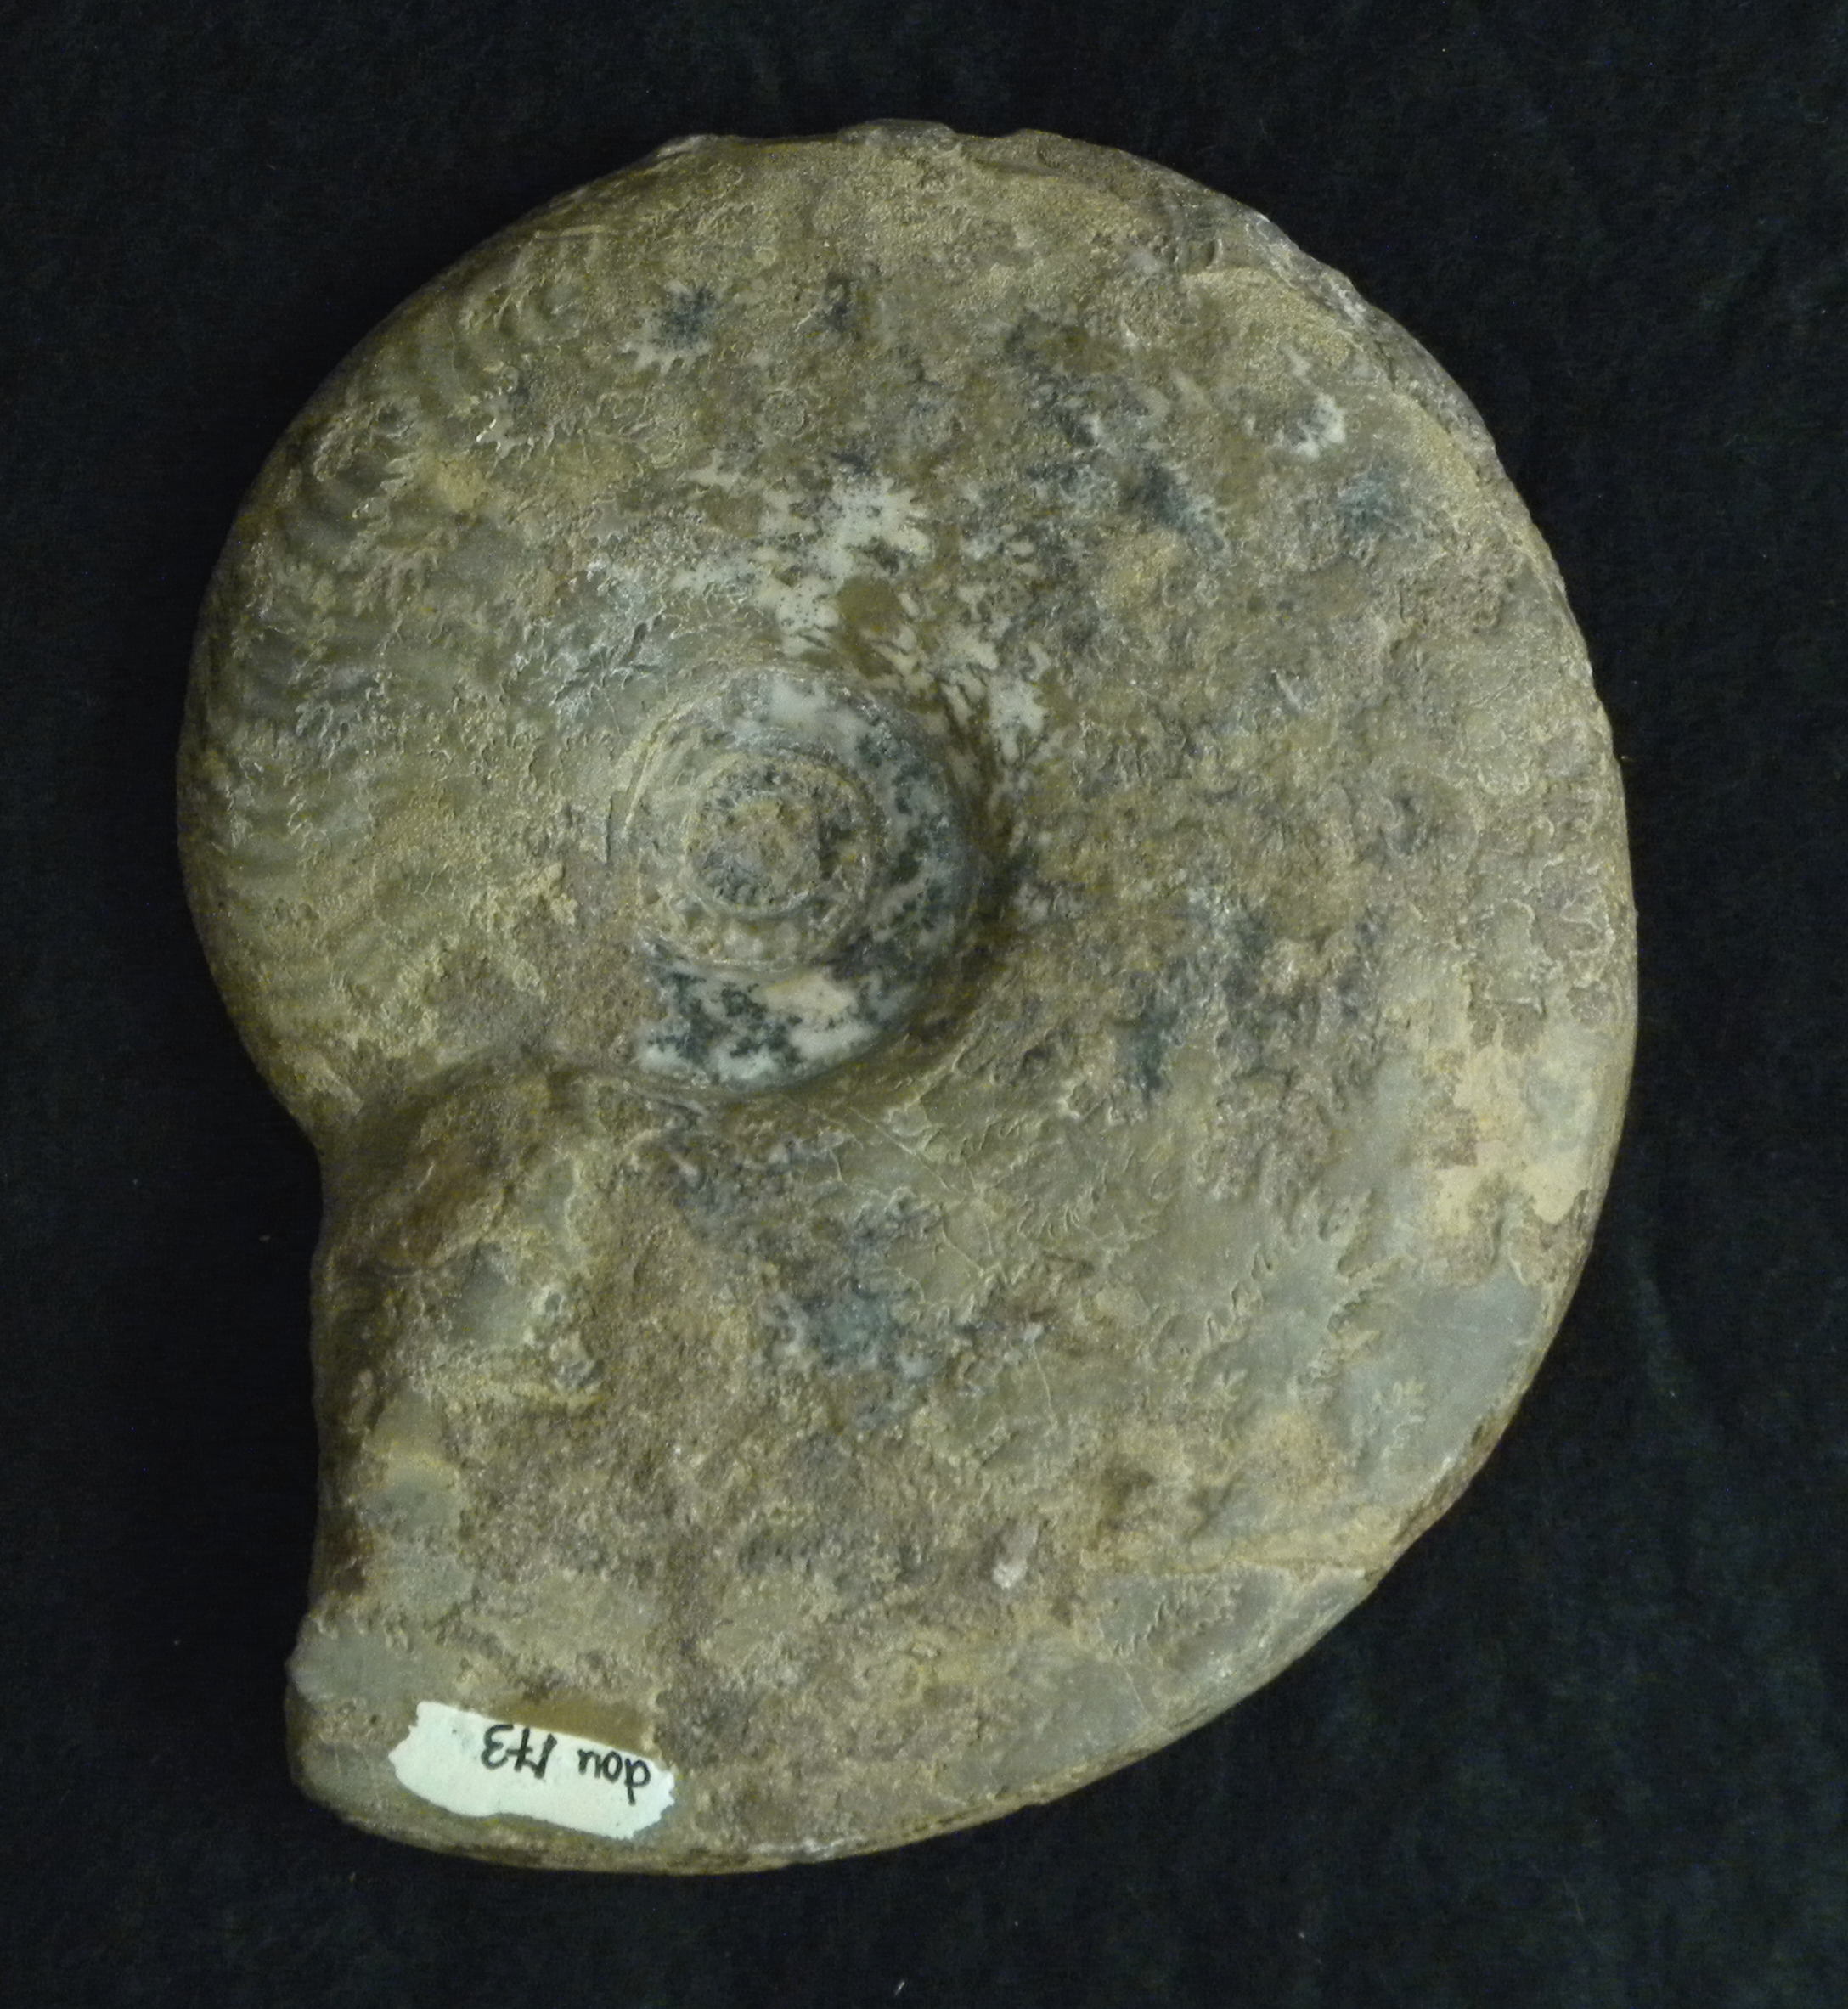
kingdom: Animalia
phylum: Mollusca
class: Cephalopoda
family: Graphoceratidae
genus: Ludwigia
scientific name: Ludwigia murchisonae
